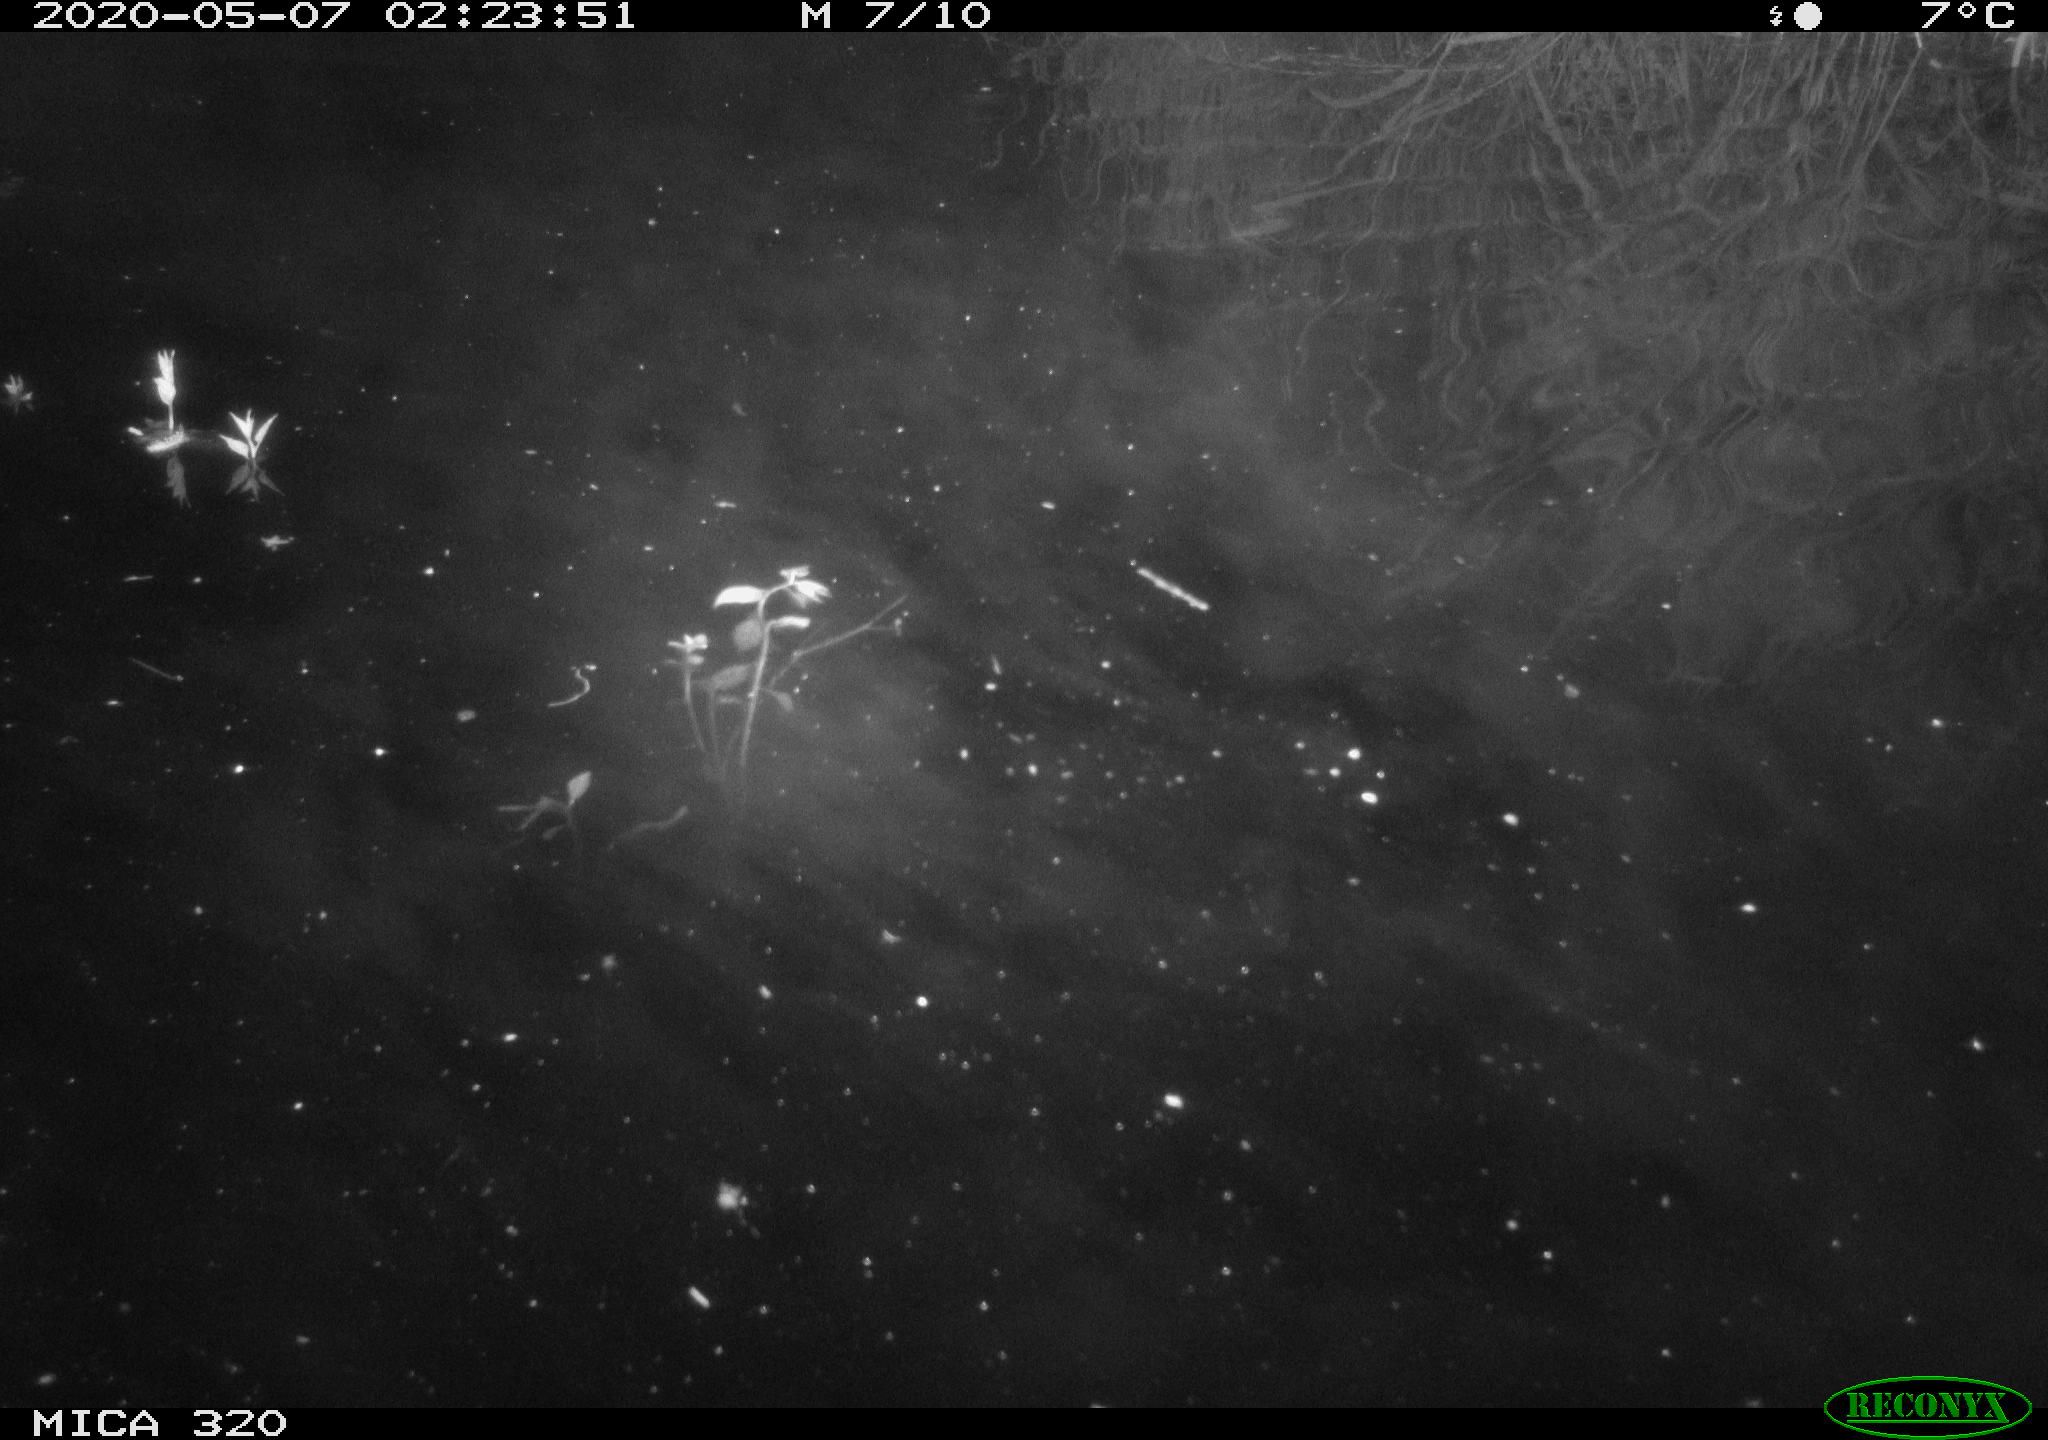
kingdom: Animalia
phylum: Chordata
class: Aves
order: Anseriformes
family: Anatidae
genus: Anas
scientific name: Anas platyrhynchos
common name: Mallard
